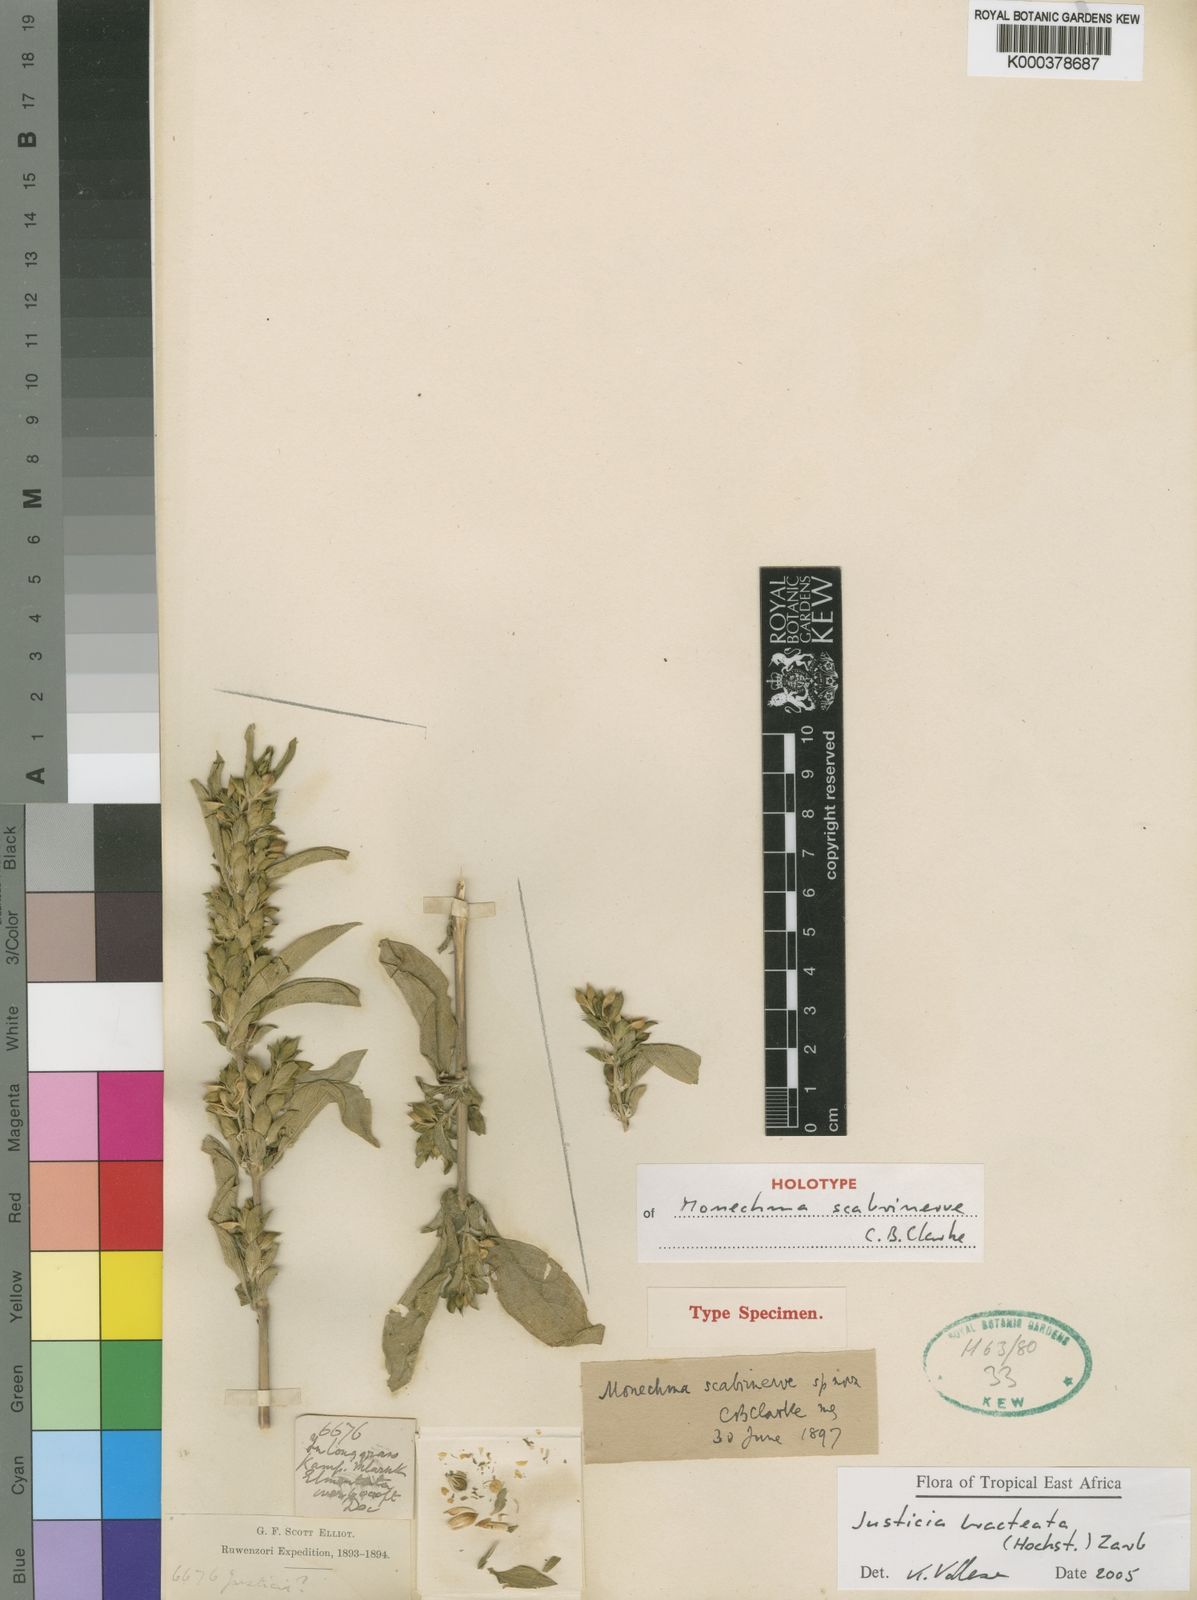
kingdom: Plantae
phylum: Tracheophyta
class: Magnoliopsida
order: Lamiales
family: Acanthaceae
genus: Monechma
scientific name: Monechma bracteatum
